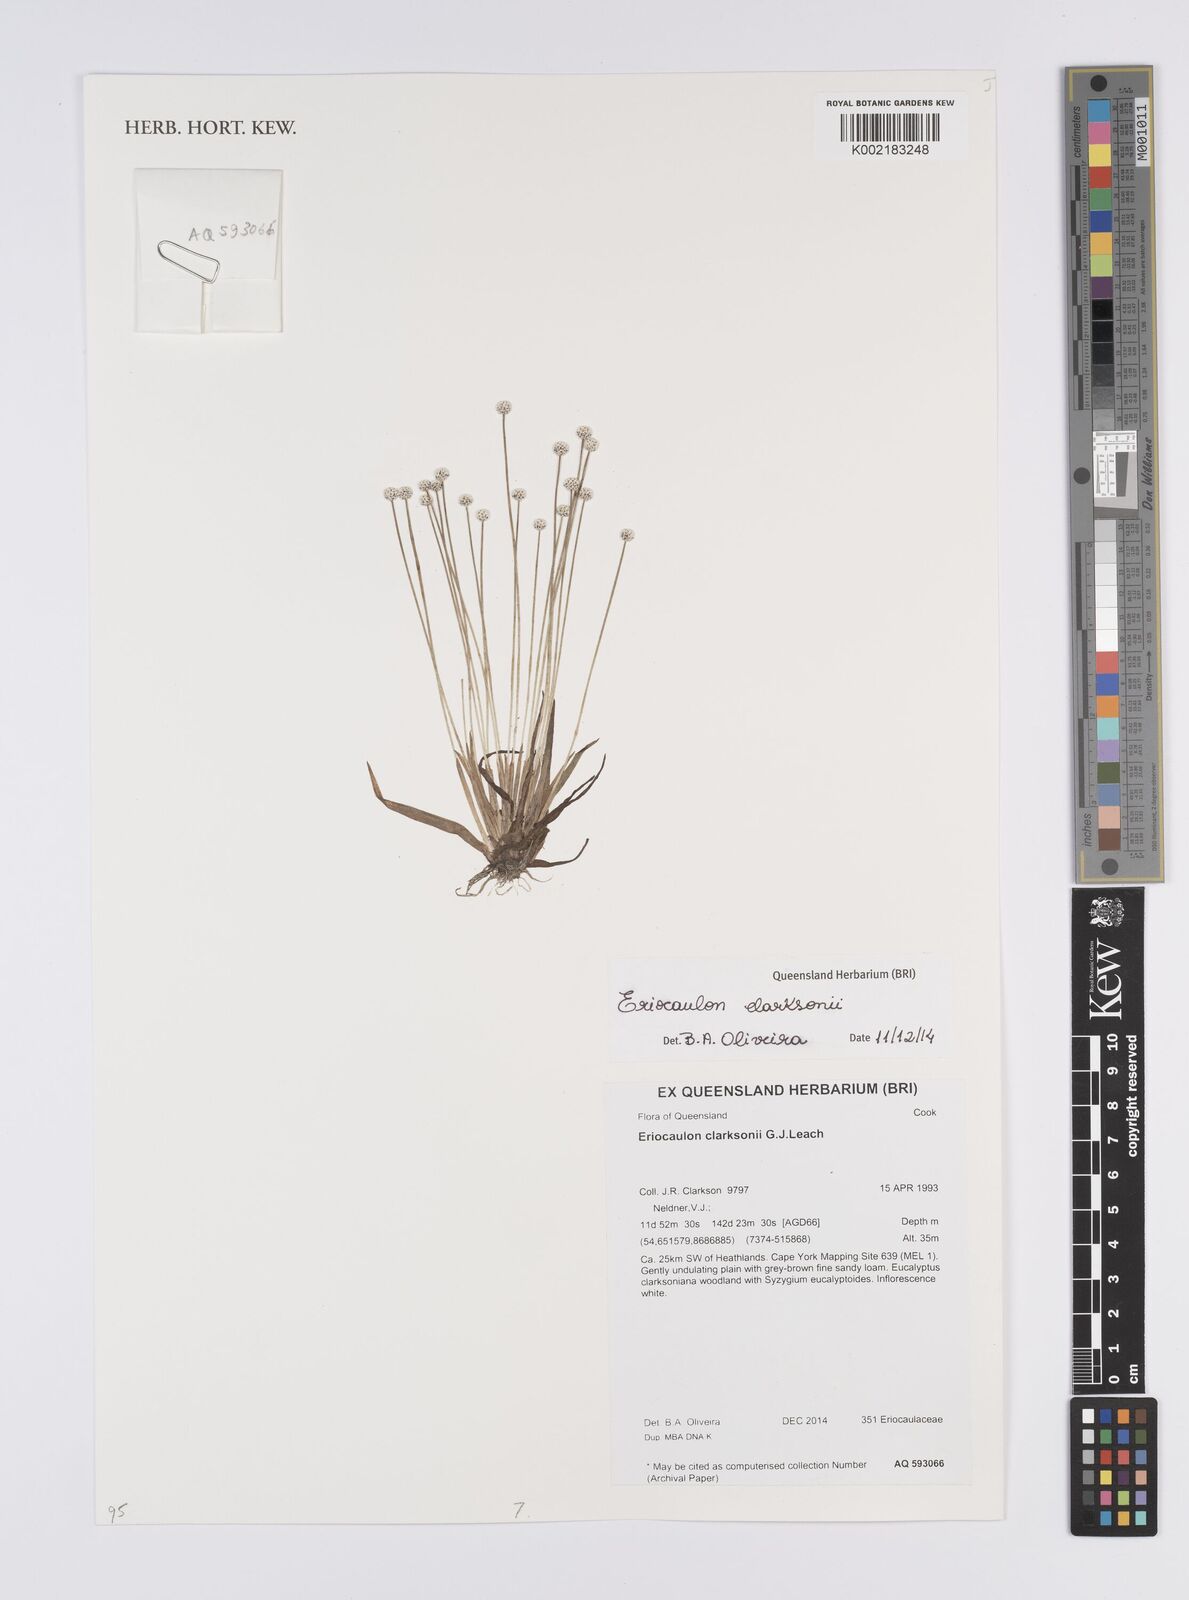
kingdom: Plantae
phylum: Tracheophyta
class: Liliopsida
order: Poales
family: Eriocaulaceae
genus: Eriocaulon
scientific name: Eriocaulon clarksonii
